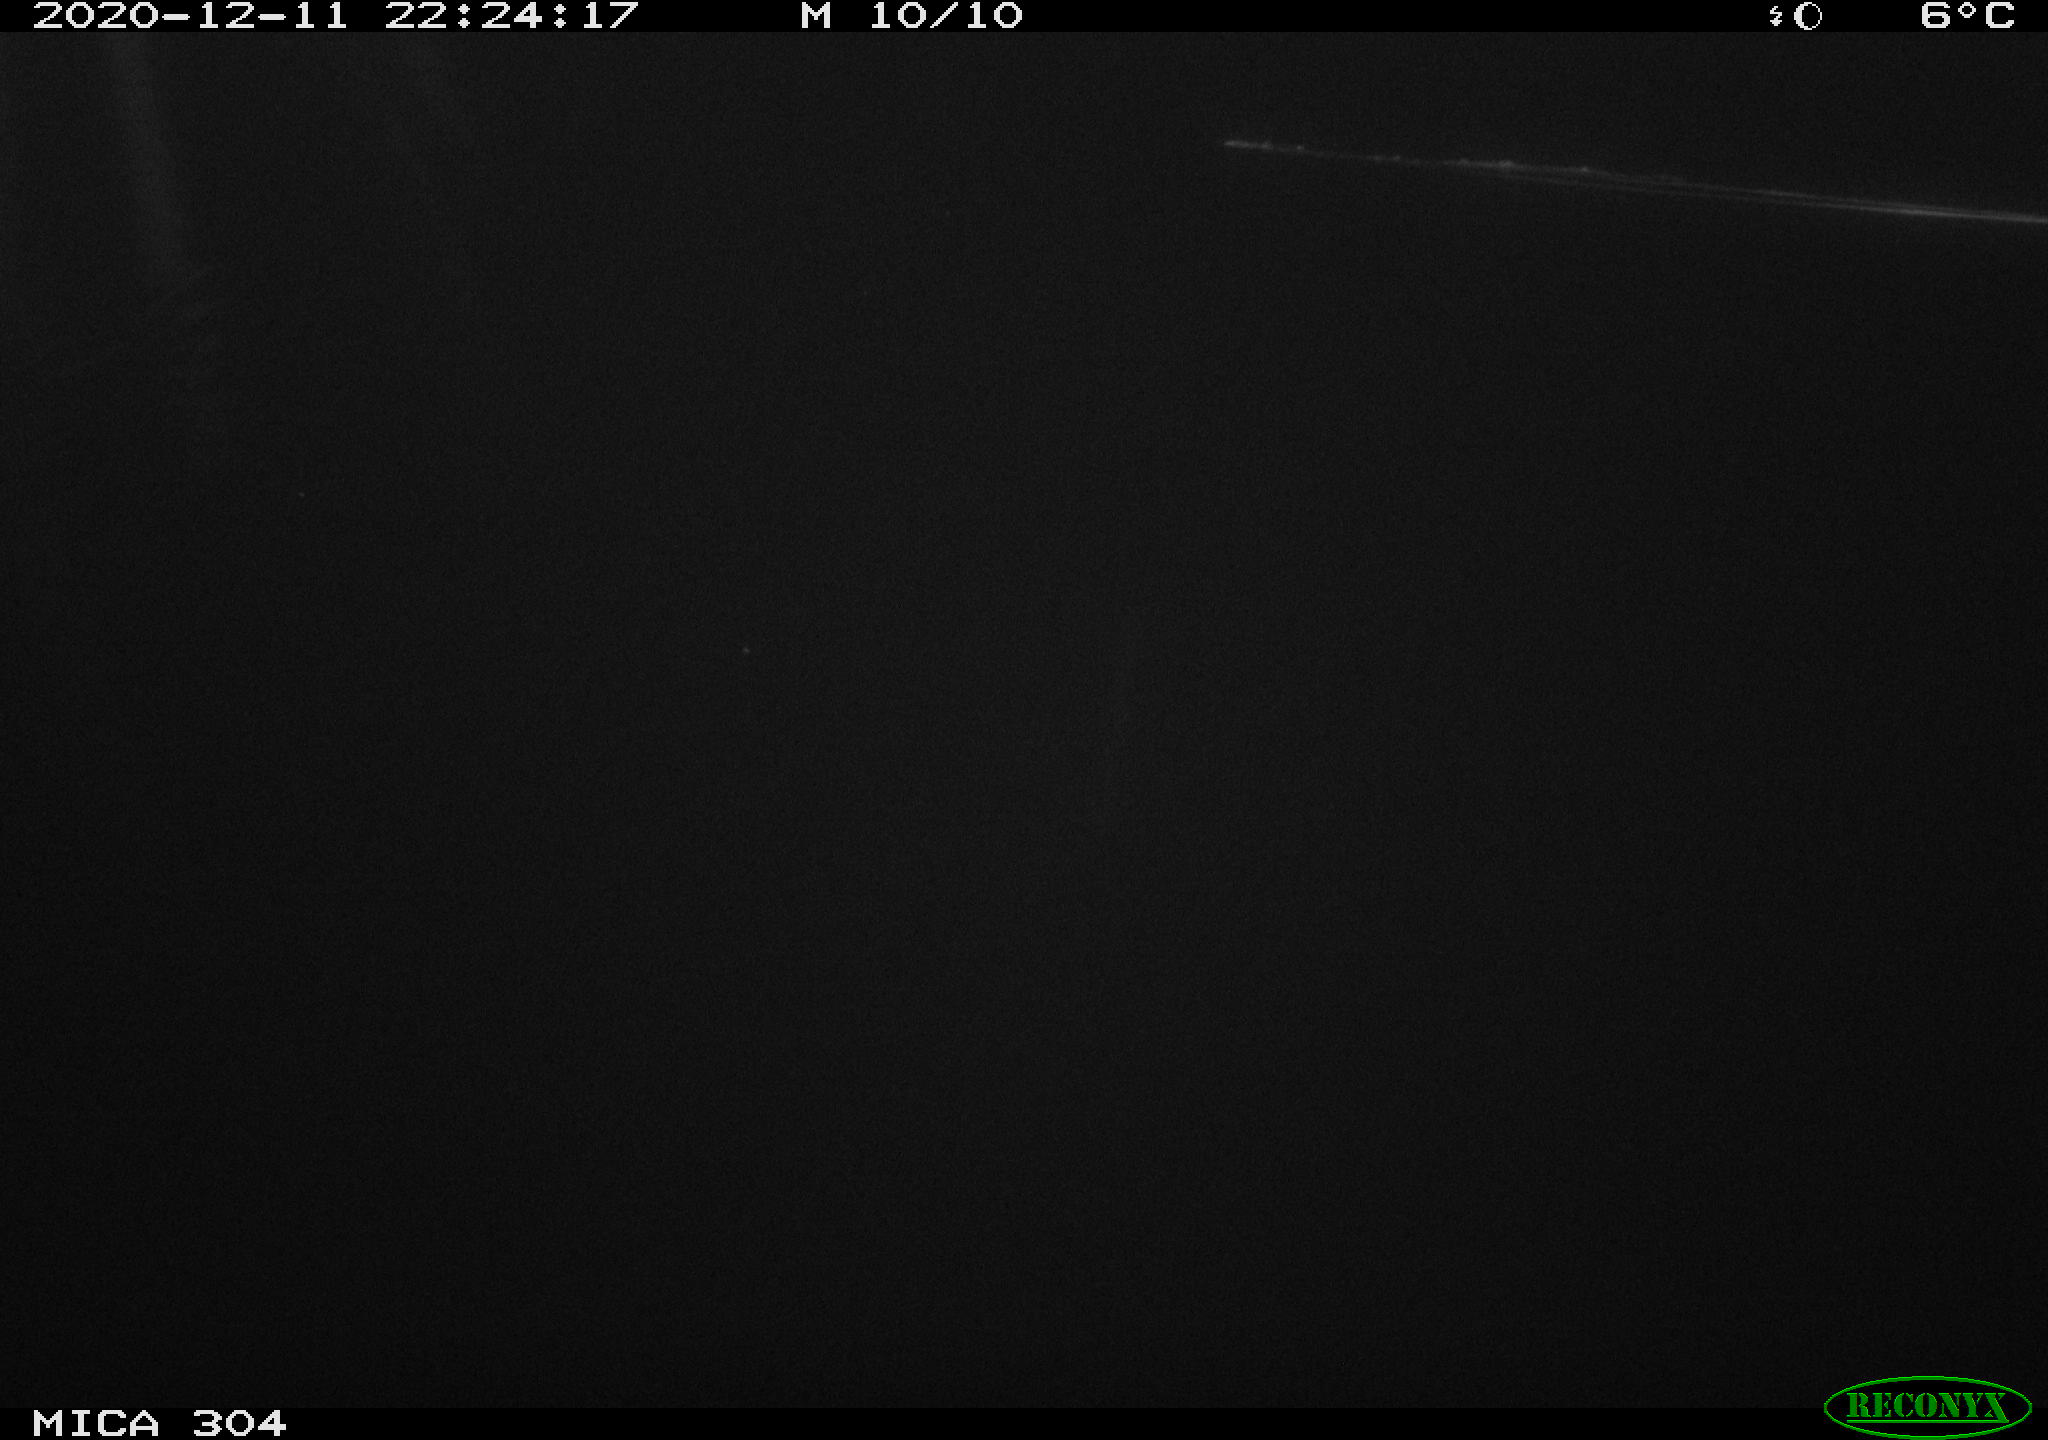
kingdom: Animalia
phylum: Chordata
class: Mammalia
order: Rodentia
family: Cricetidae
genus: Ondatra
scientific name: Ondatra zibethicus
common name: Muskrat
